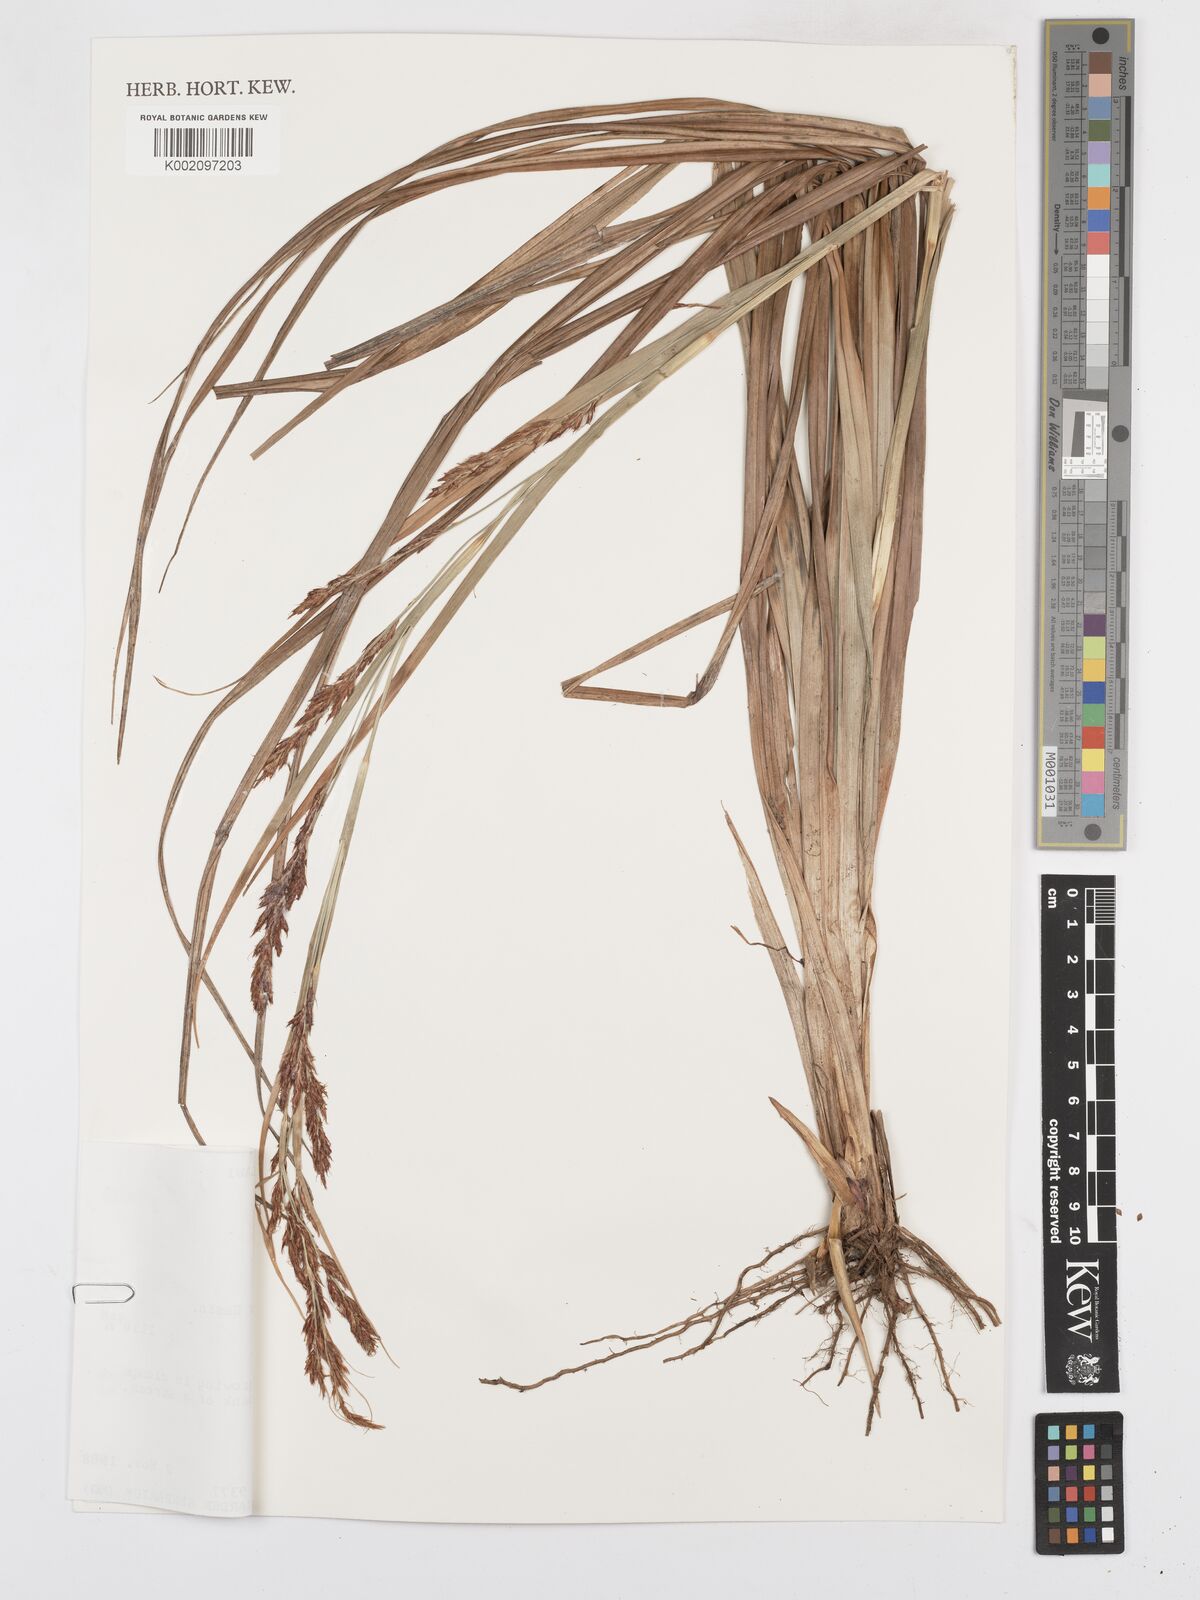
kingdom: Plantae
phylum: Tracheophyta
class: Liliopsida
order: Poales
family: Cyperaceae
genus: Carex
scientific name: Carex
